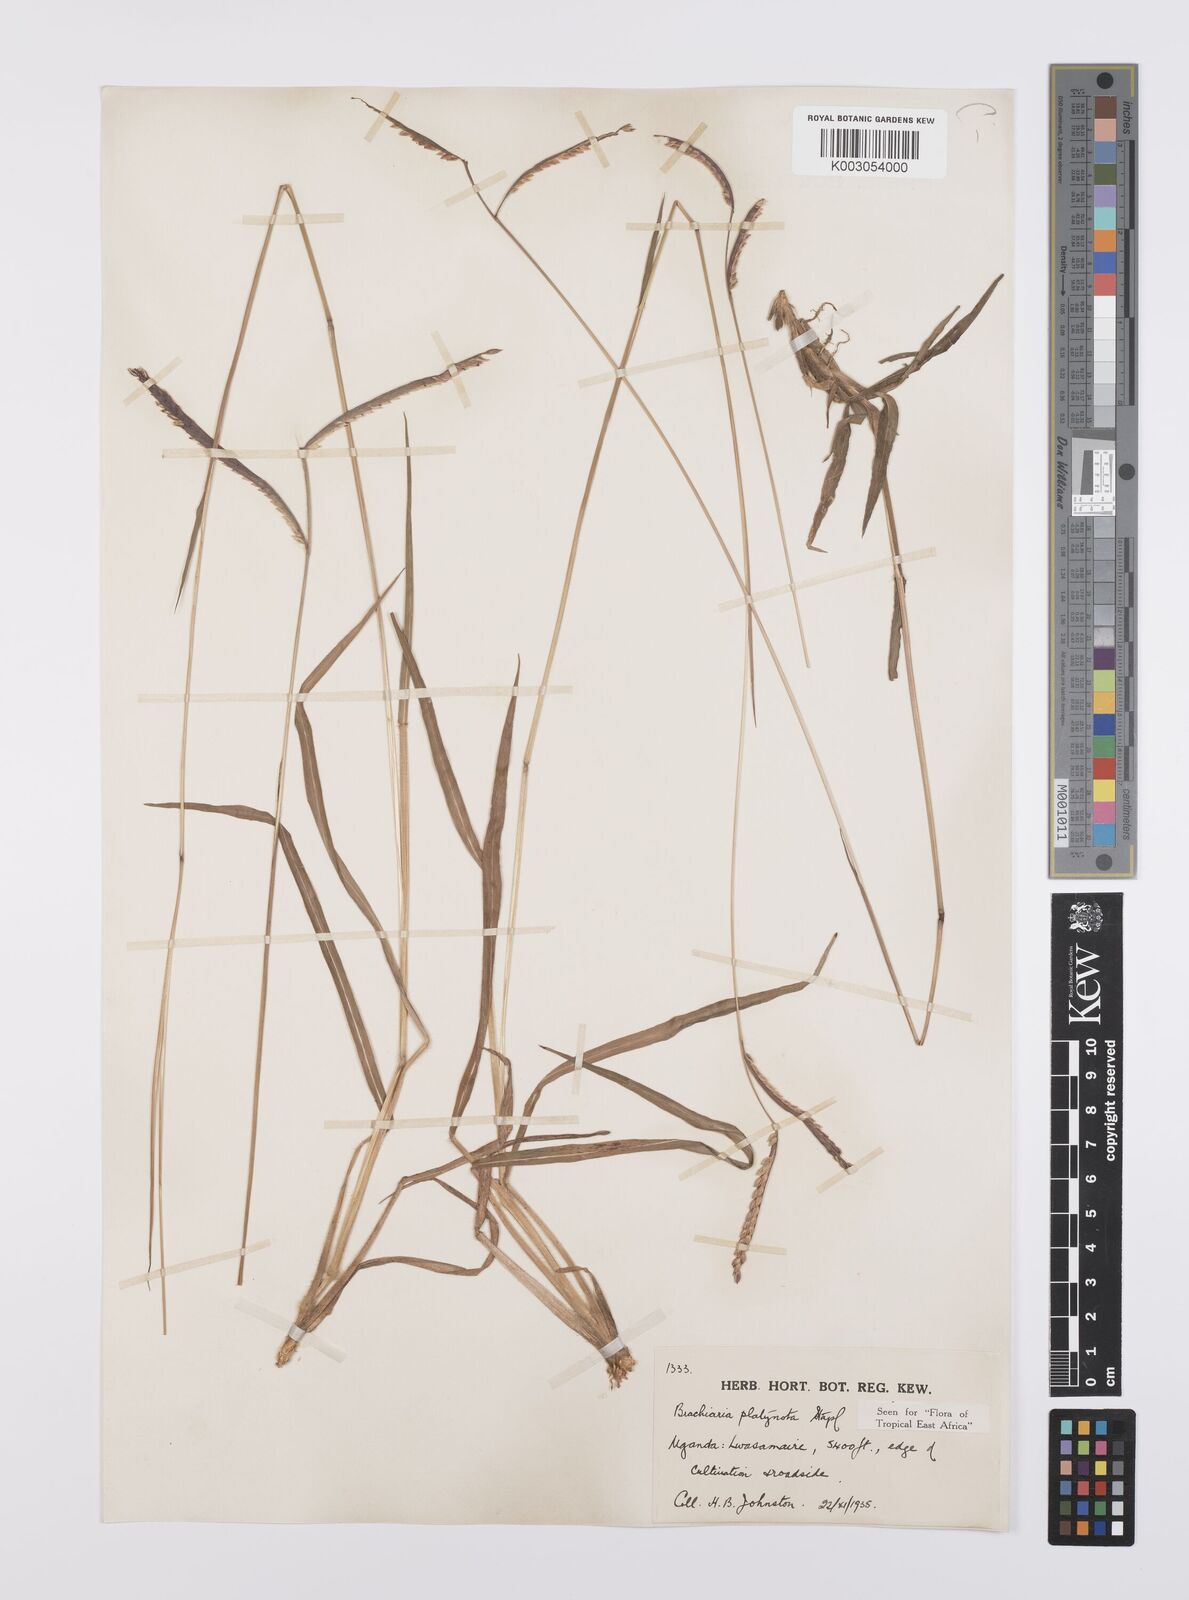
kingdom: Plantae
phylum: Tracheophyta
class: Liliopsida
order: Poales
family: Poaceae
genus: Urochloa
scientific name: Urochloa platynota
